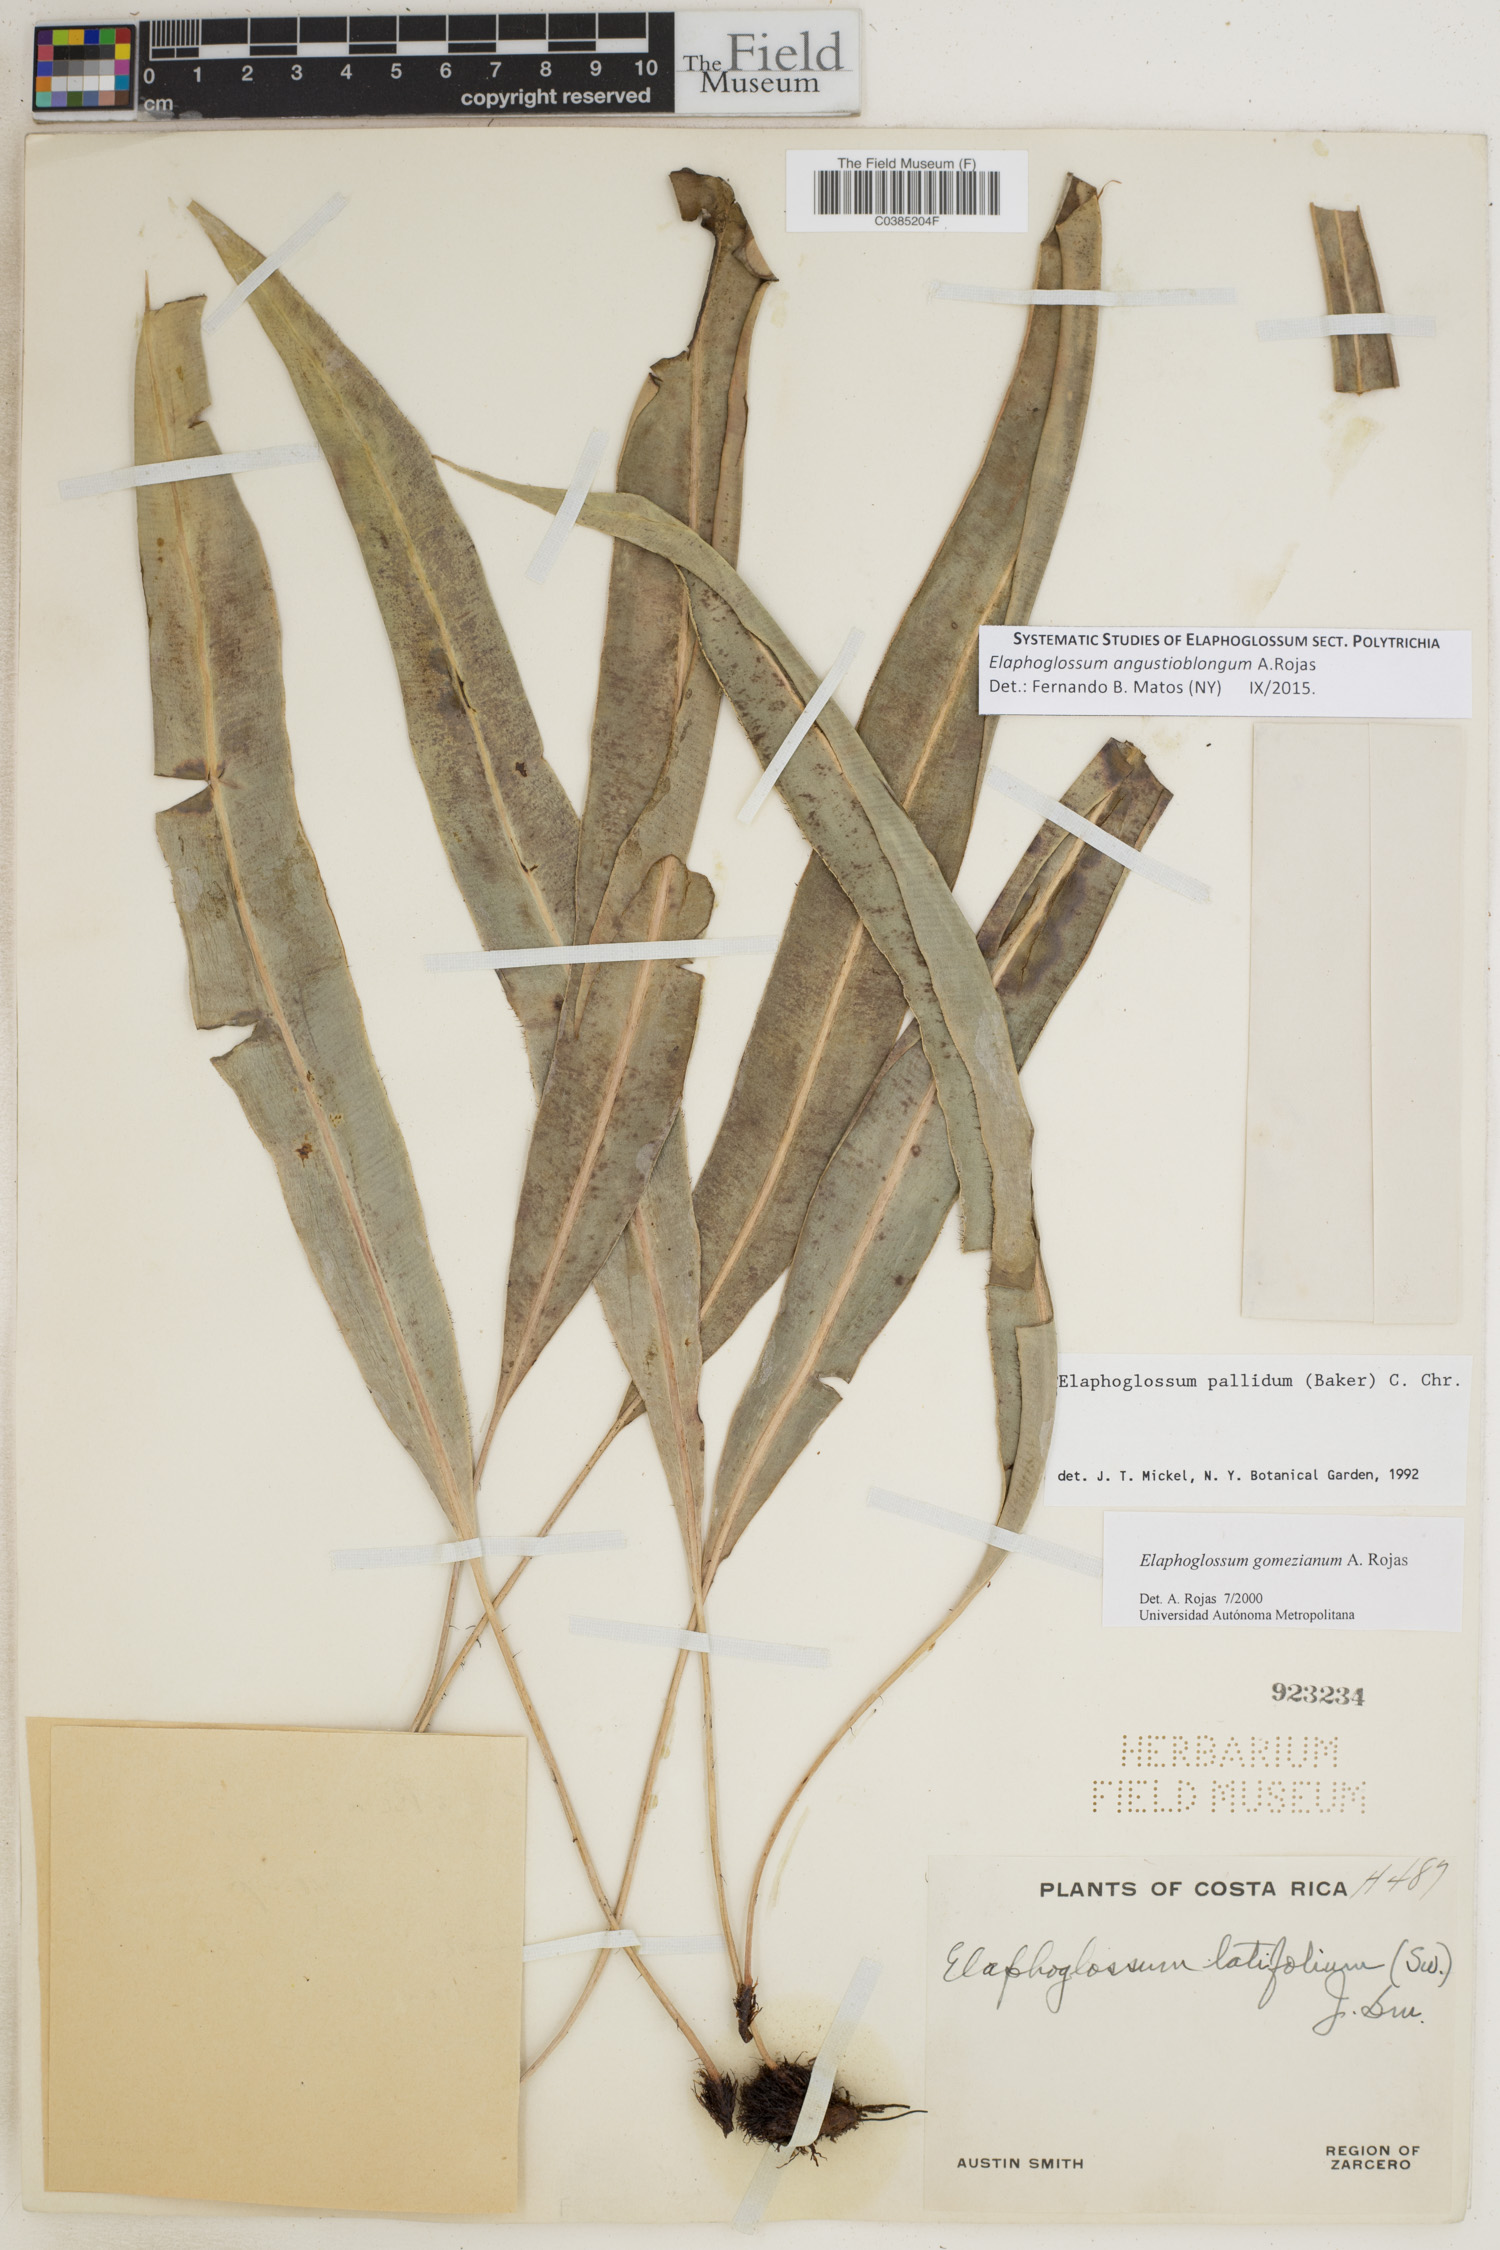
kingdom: Plantae
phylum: Tracheophyta
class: Polypodiopsida
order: Polypodiales
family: Dryopteridaceae
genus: Elaphoglossum
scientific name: Elaphoglossum angustioblongum
